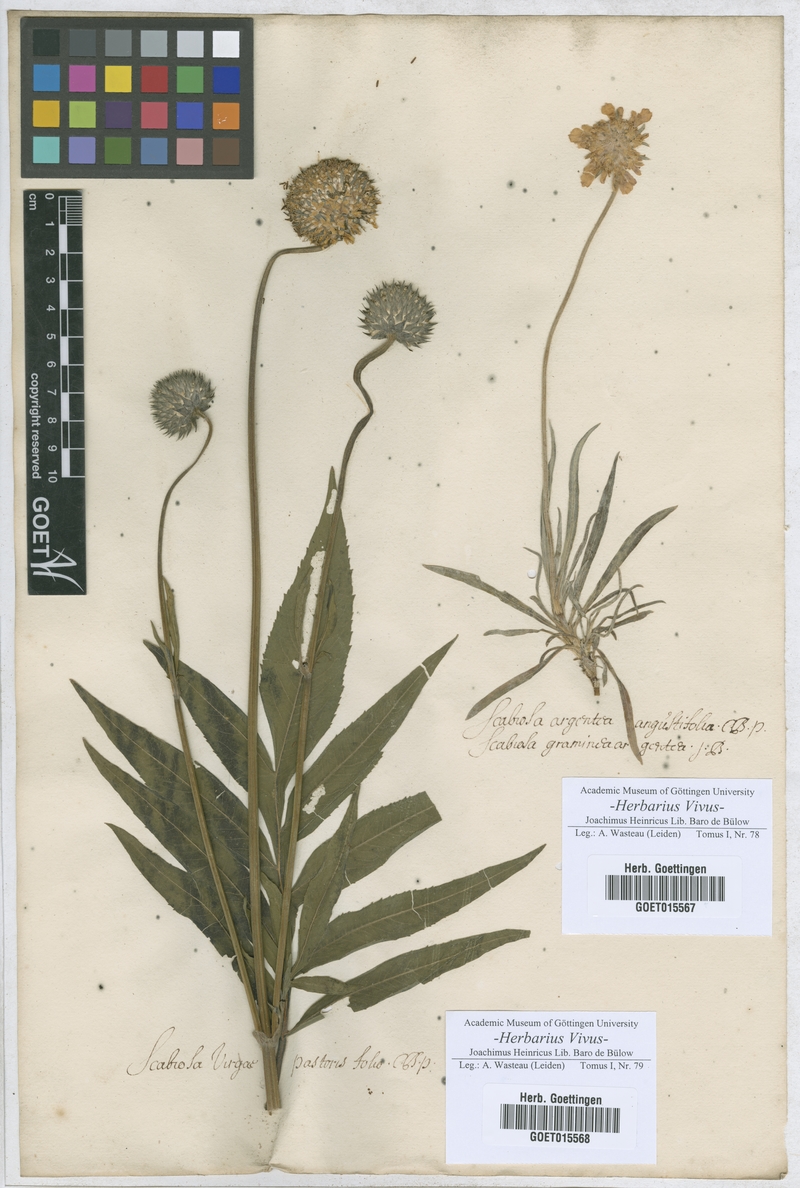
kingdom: Plantae
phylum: Tracheophyta
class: Magnoliopsida
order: Dipsacales
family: Caprifoliaceae
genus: Lomelosia
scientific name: Lomelosia argentea
